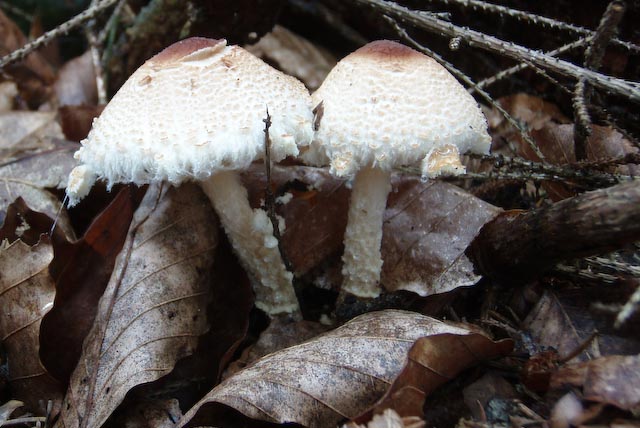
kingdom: Fungi
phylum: Basidiomycota
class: Agaricomycetes
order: Agaricales
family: Agaricaceae
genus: Lepiota
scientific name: Lepiota magnispora
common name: gulfnugget parasolhat
